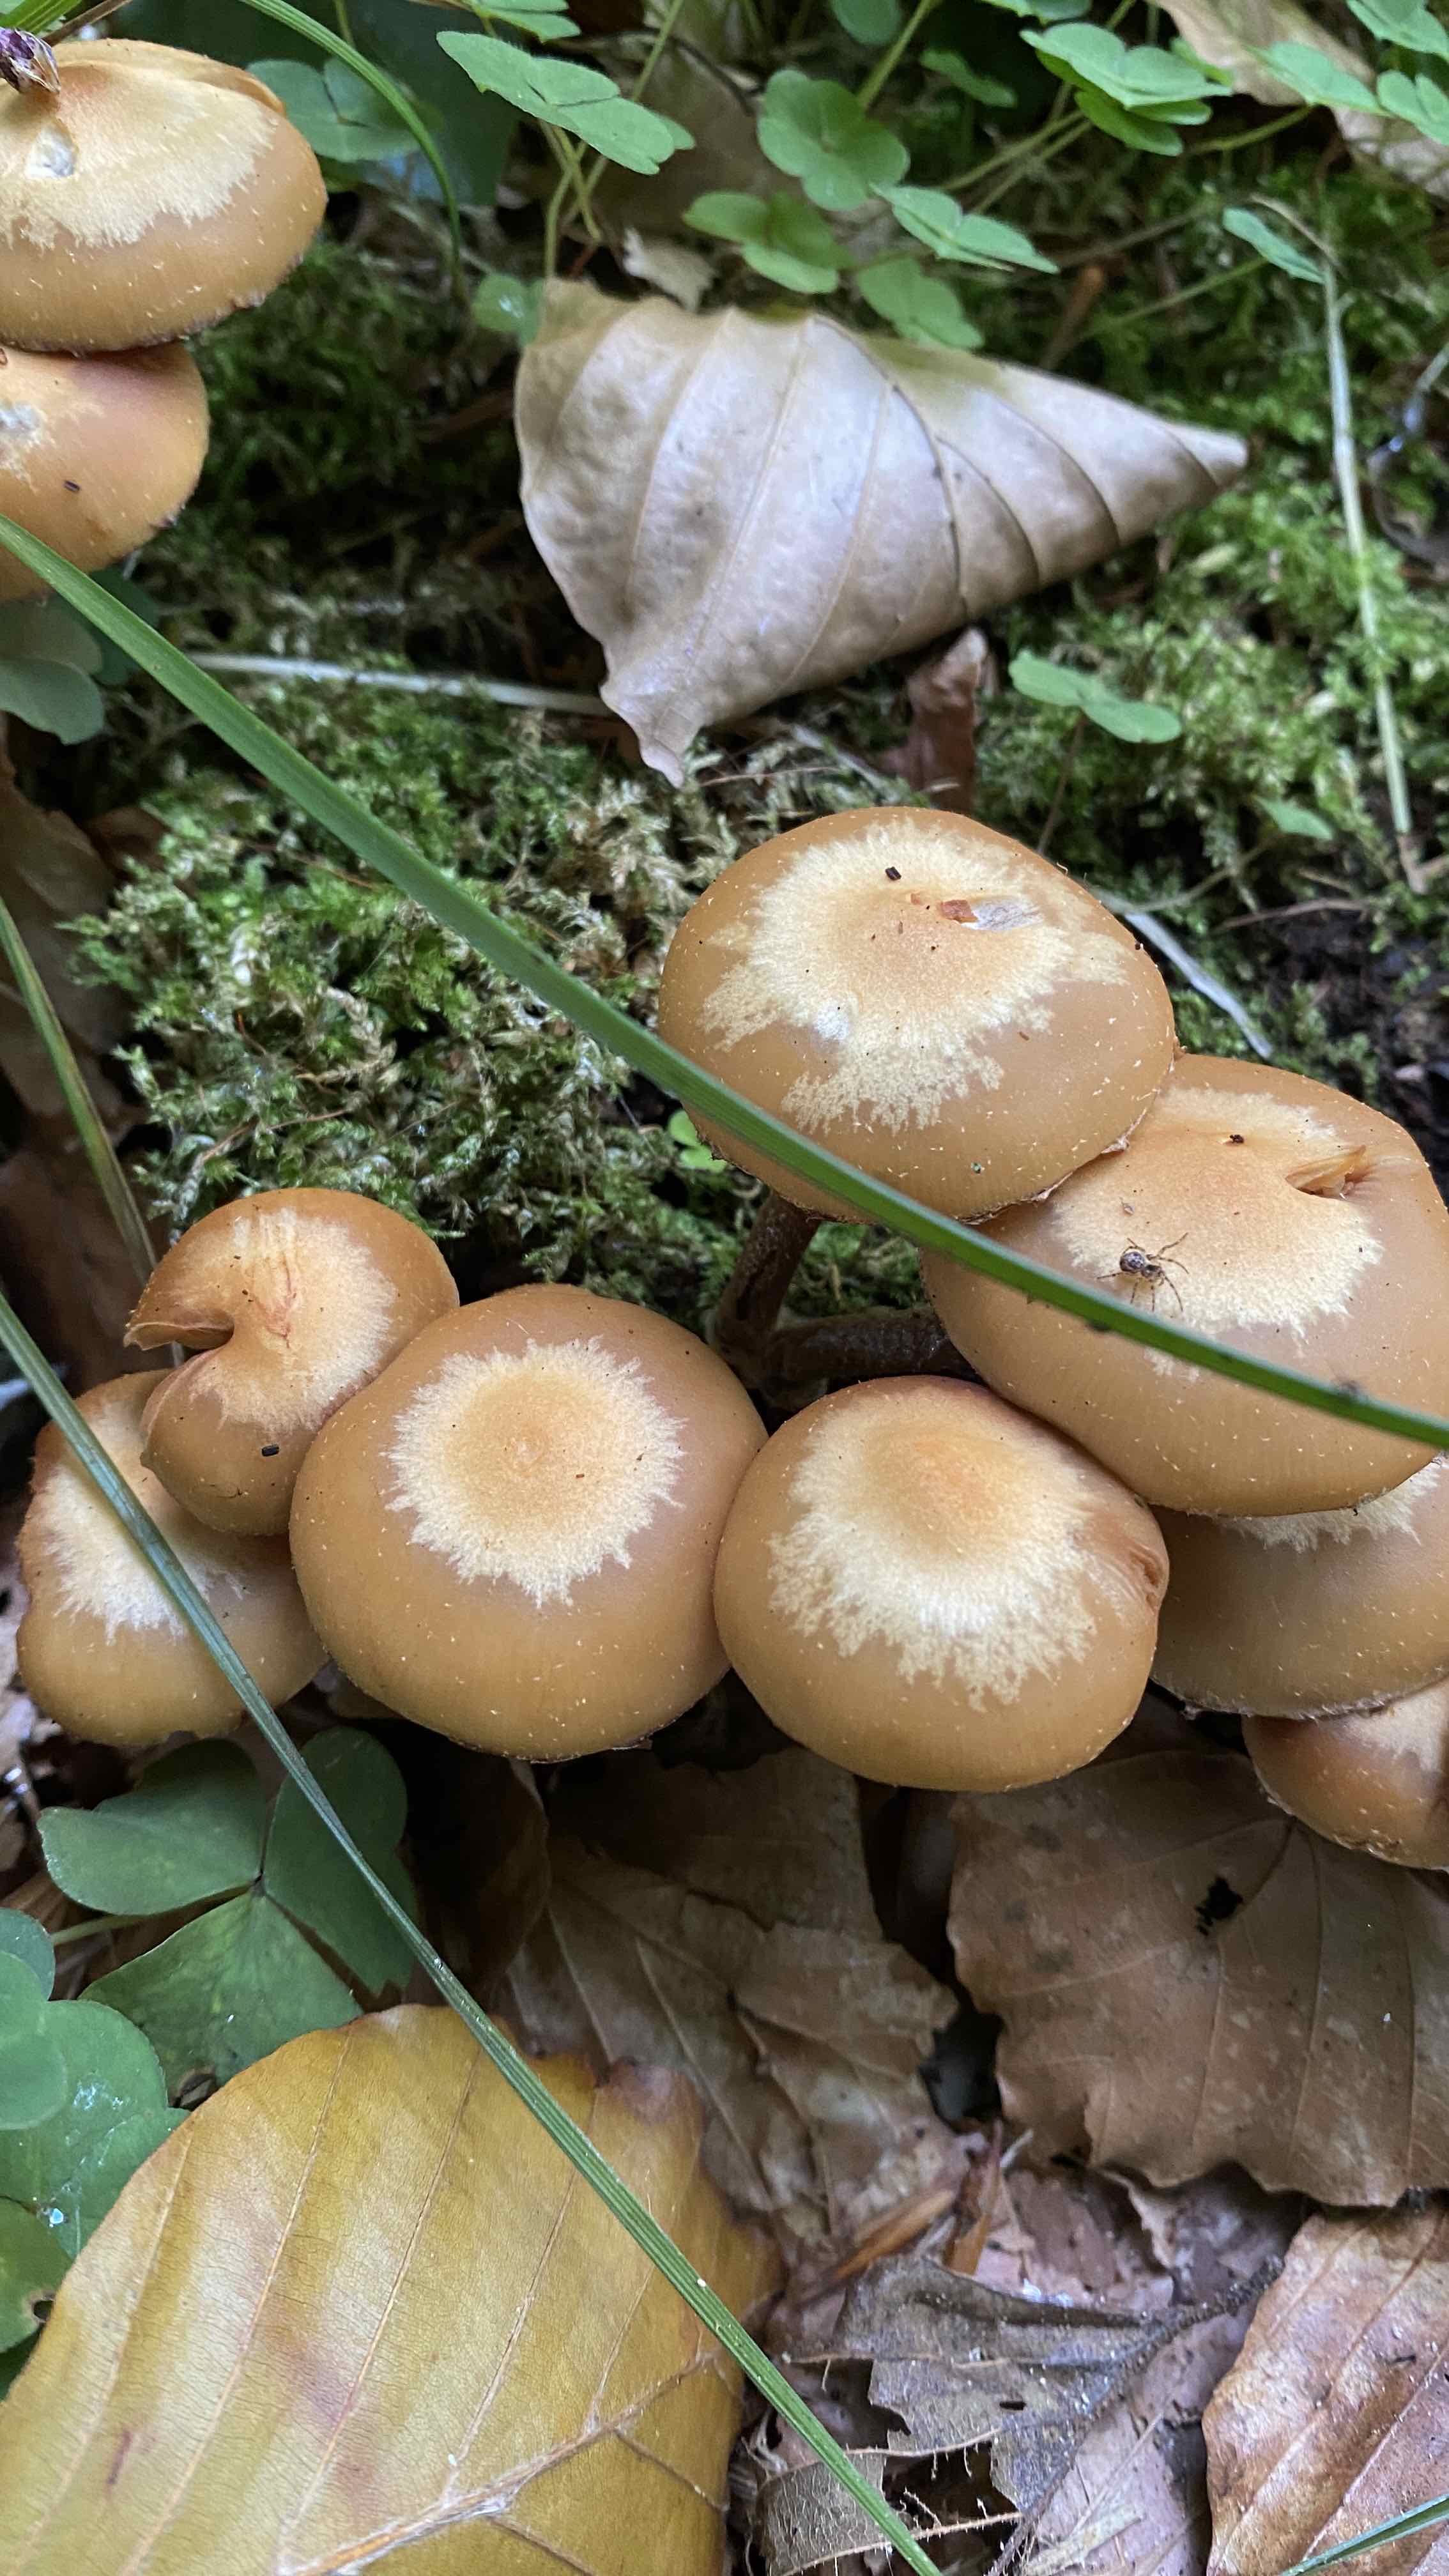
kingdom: Fungi
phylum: Basidiomycota
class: Agaricomycetes
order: Agaricales
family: Strophariaceae
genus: Kuehneromyces
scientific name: Kuehneromyces mutabilis
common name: foranderlig skælhat
